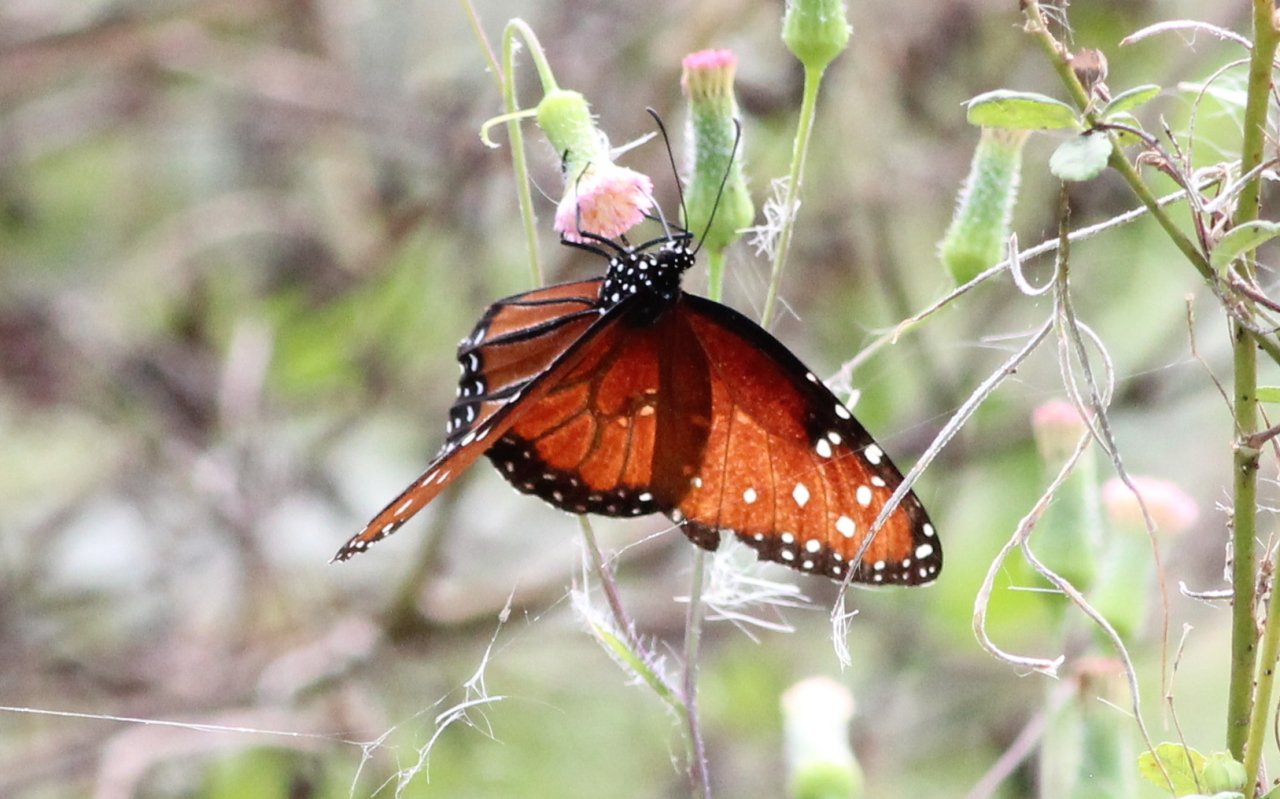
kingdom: Animalia
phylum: Arthropoda
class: Insecta
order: Lepidoptera
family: Nymphalidae
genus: Danaus
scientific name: Danaus gilippus
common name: Queen
